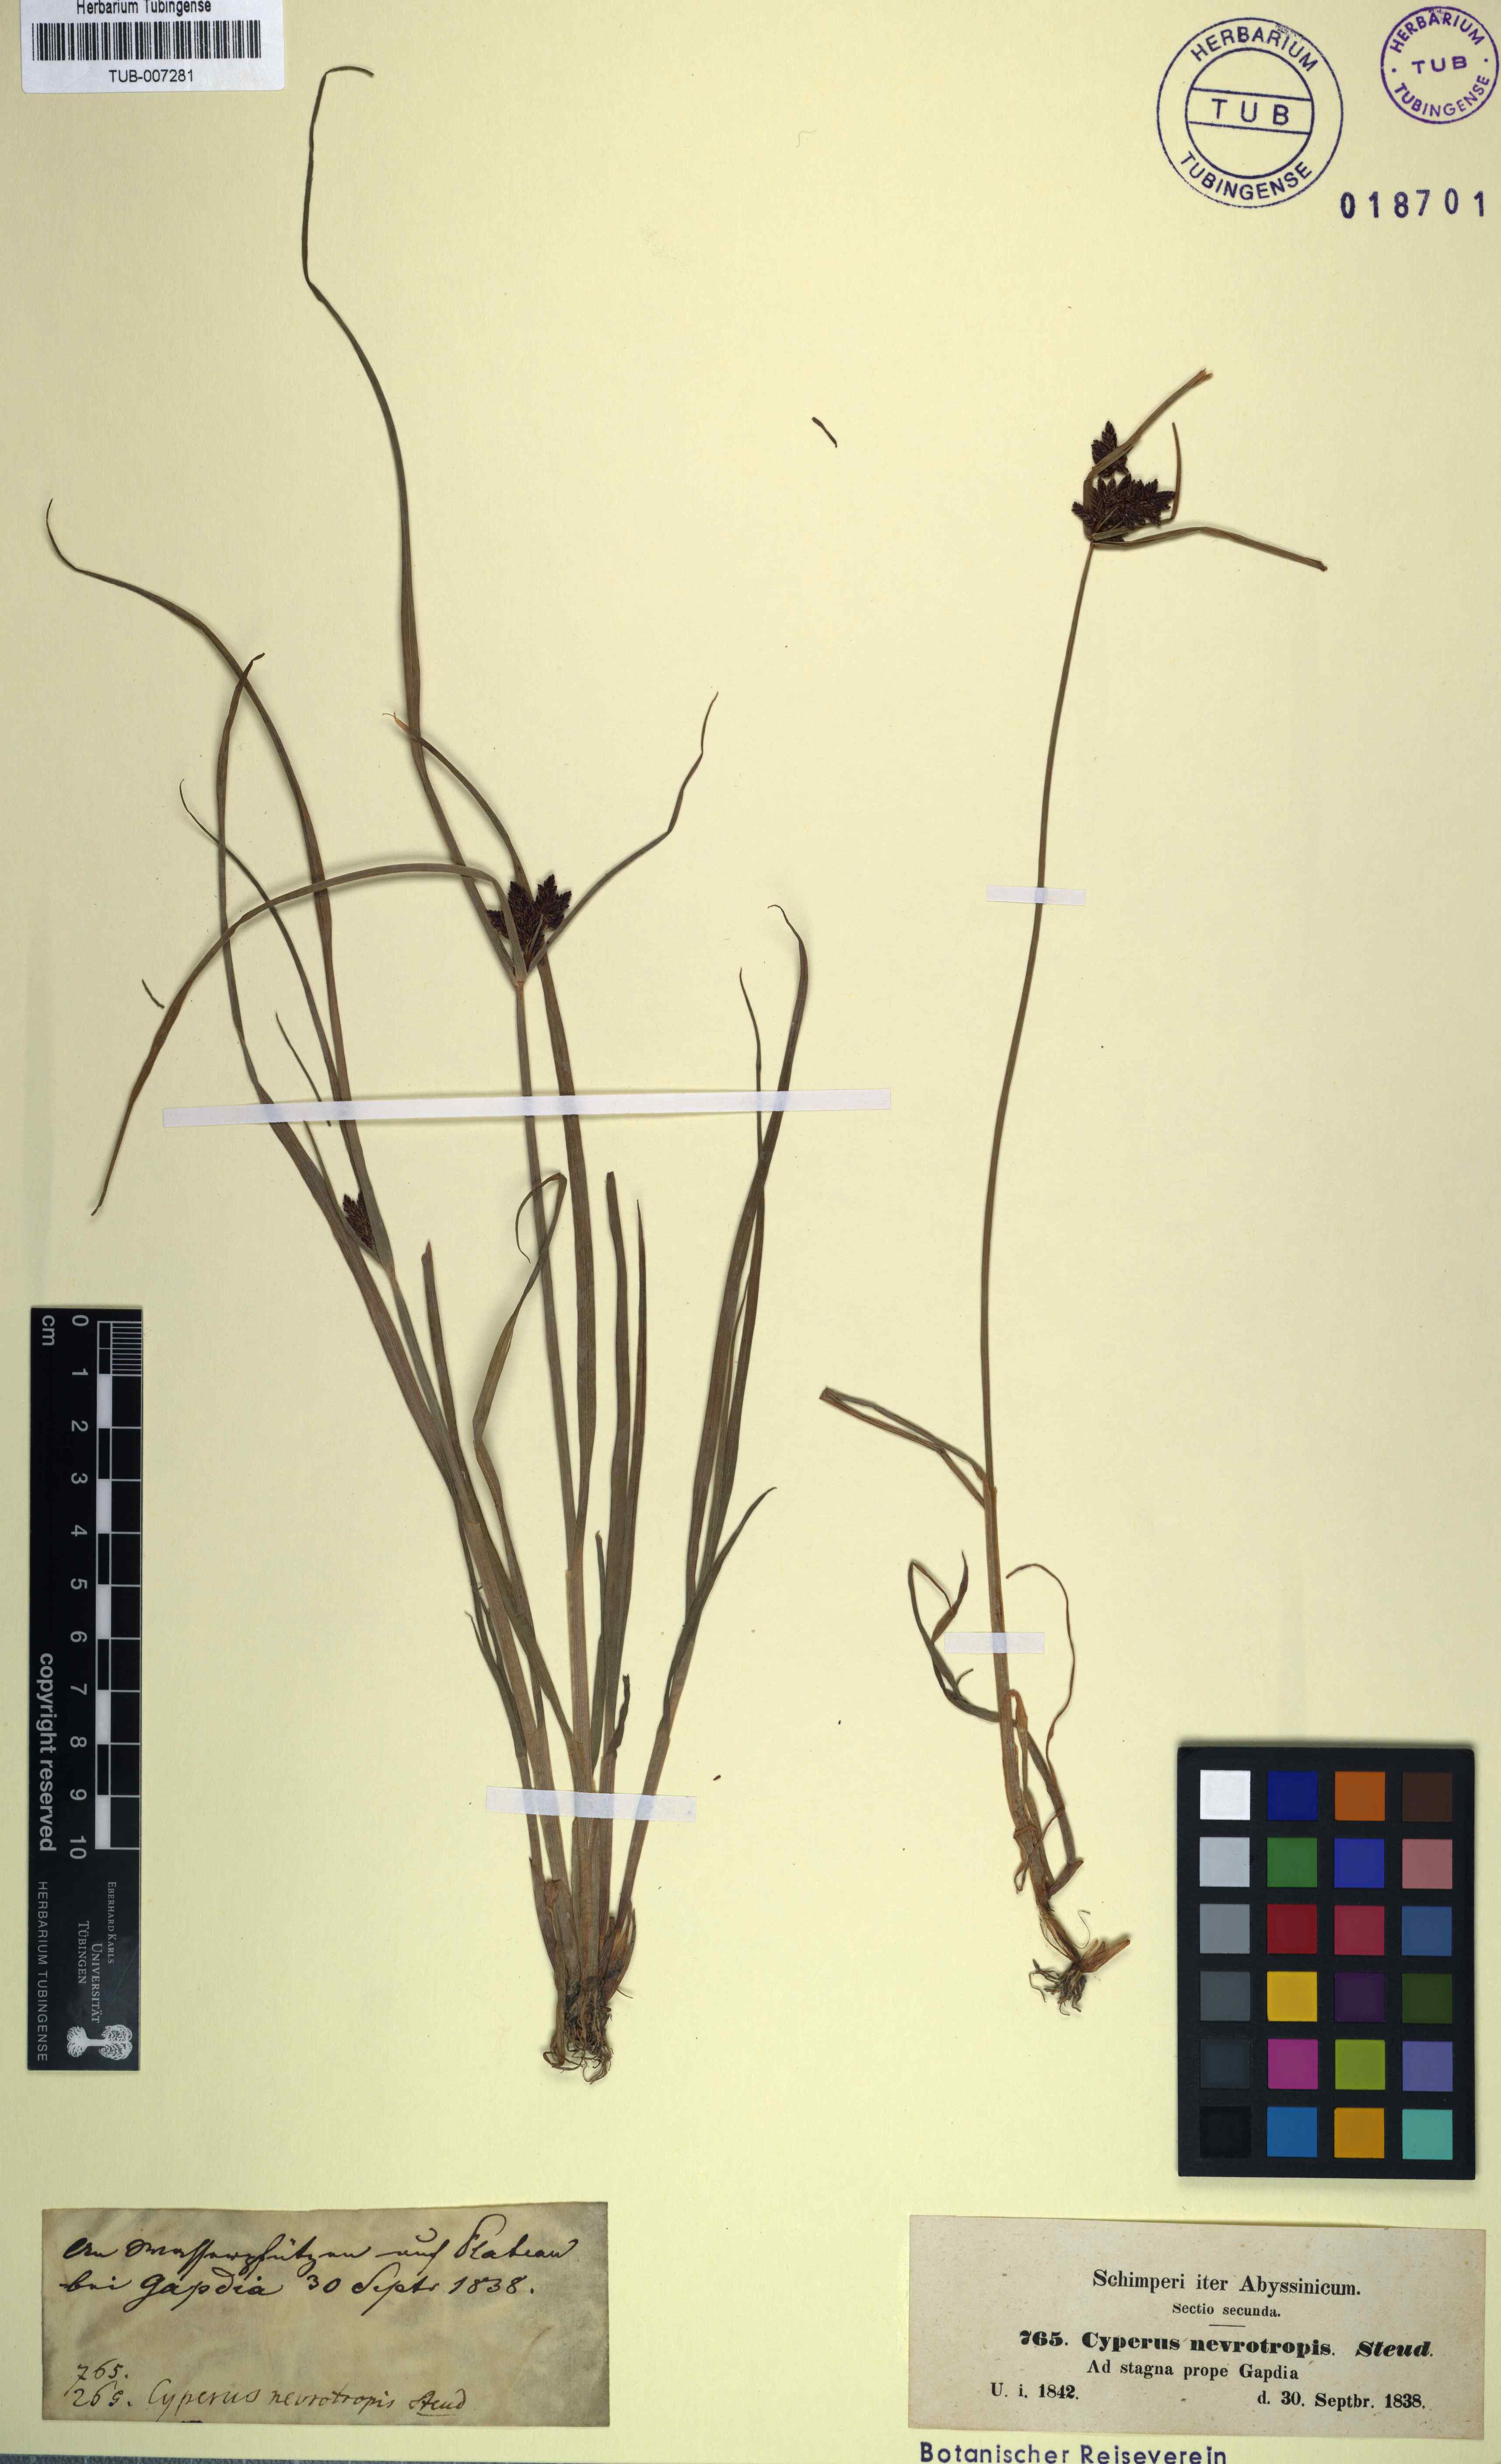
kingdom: Plantae
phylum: Tracheophyta
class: Liliopsida
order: Poales
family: Cyperaceae
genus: Cyperus
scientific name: Cyperus nevrotropis
